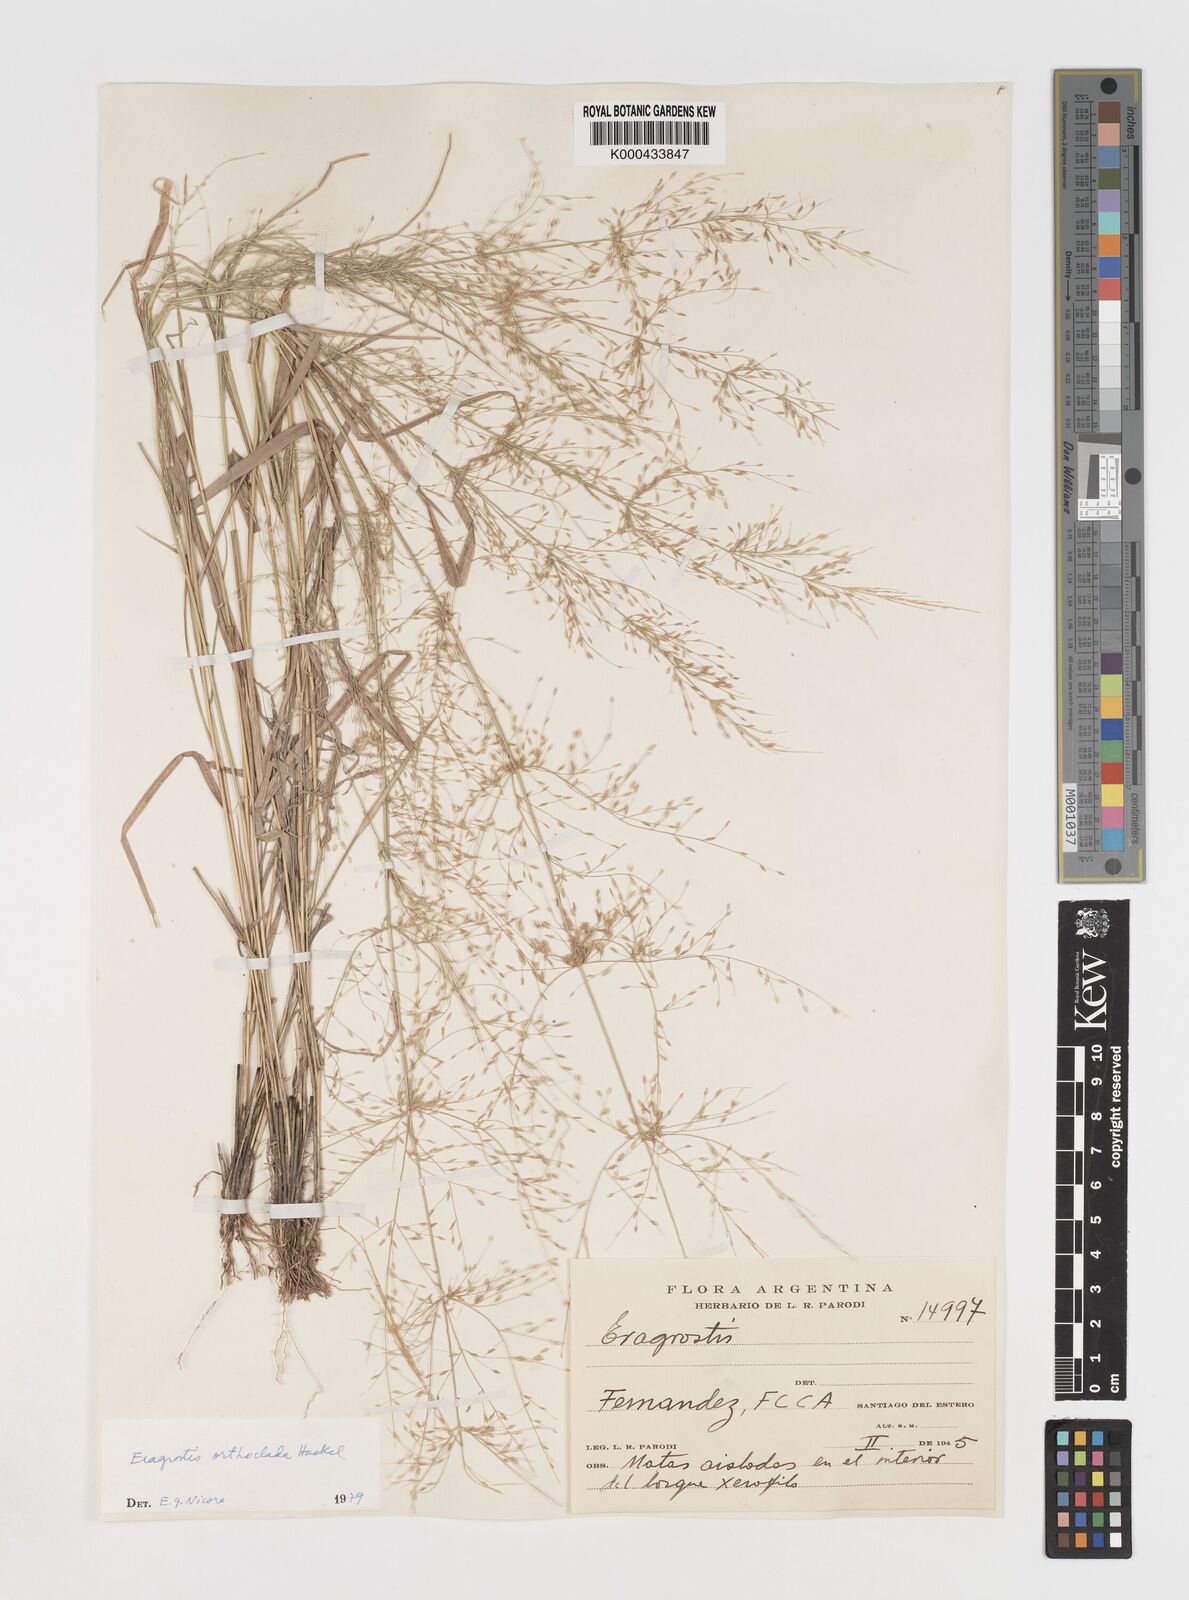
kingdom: Plantae
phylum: Tracheophyta
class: Liliopsida
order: Poales
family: Poaceae
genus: Eragrostis
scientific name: Eragrostis orthoclada
